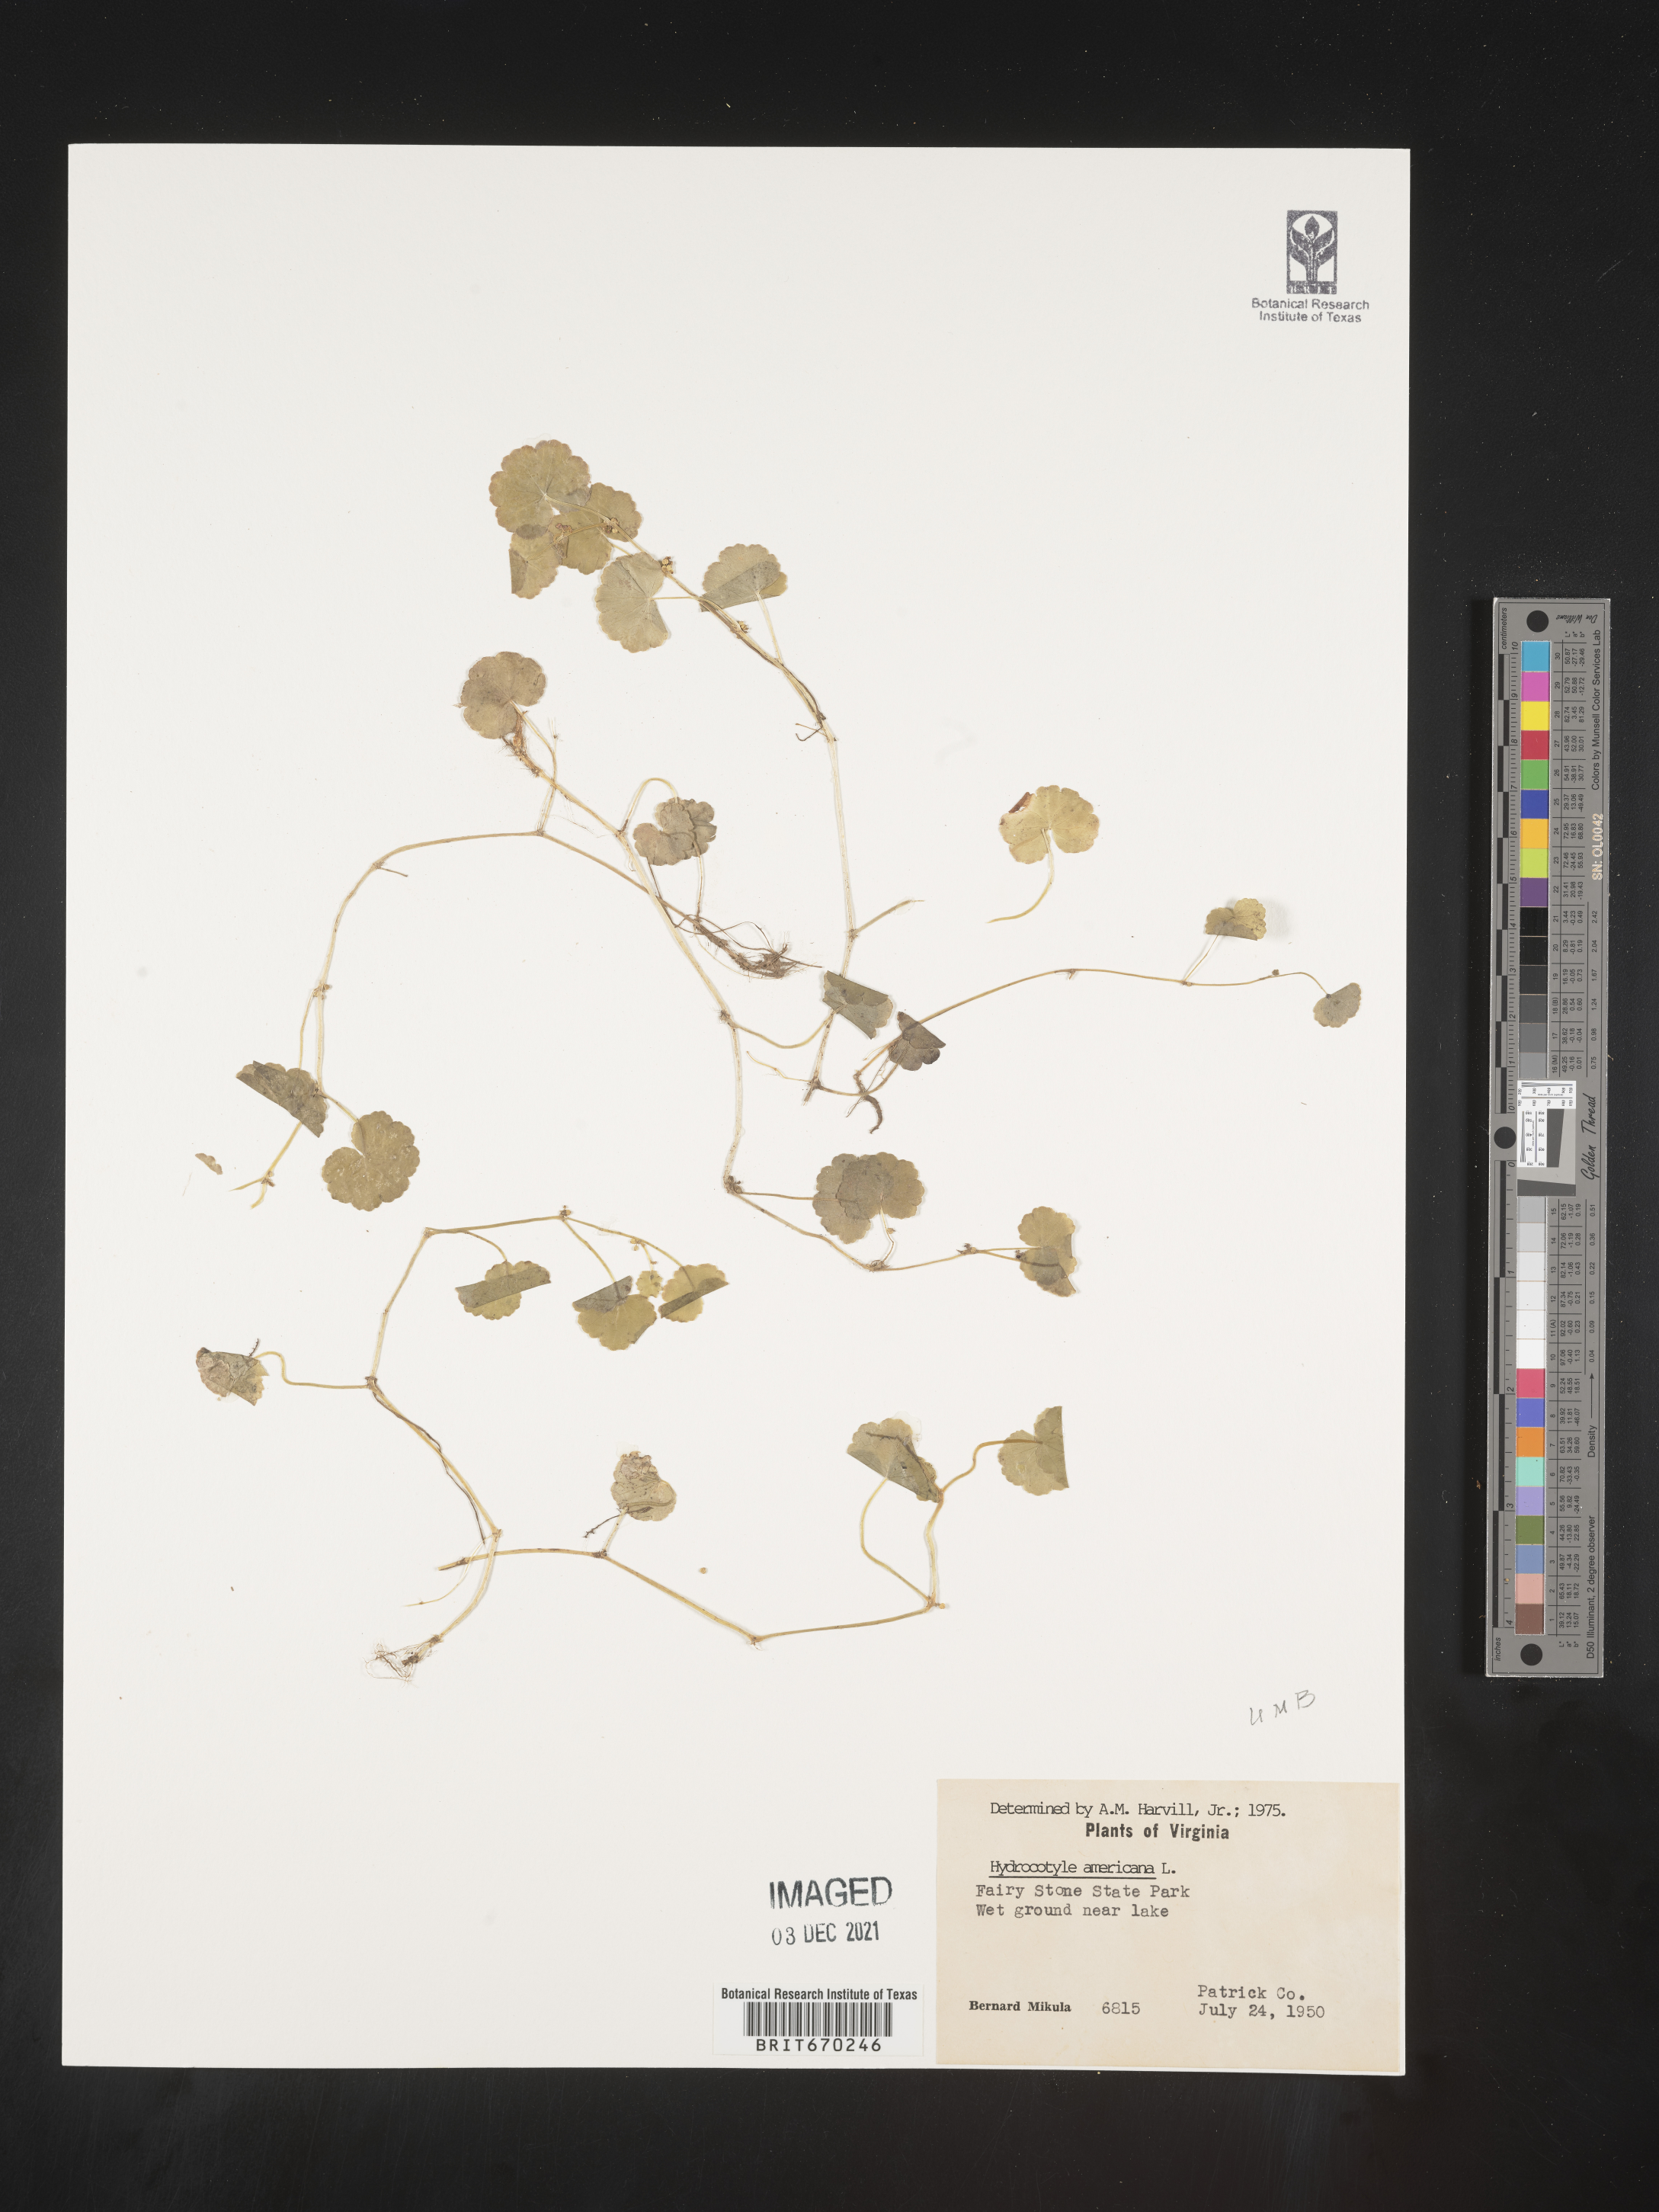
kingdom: Plantae
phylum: Tracheophyta
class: Magnoliopsida
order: Apiales
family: Araliaceae
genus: Hydrocotyle
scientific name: Hydrocotyle
